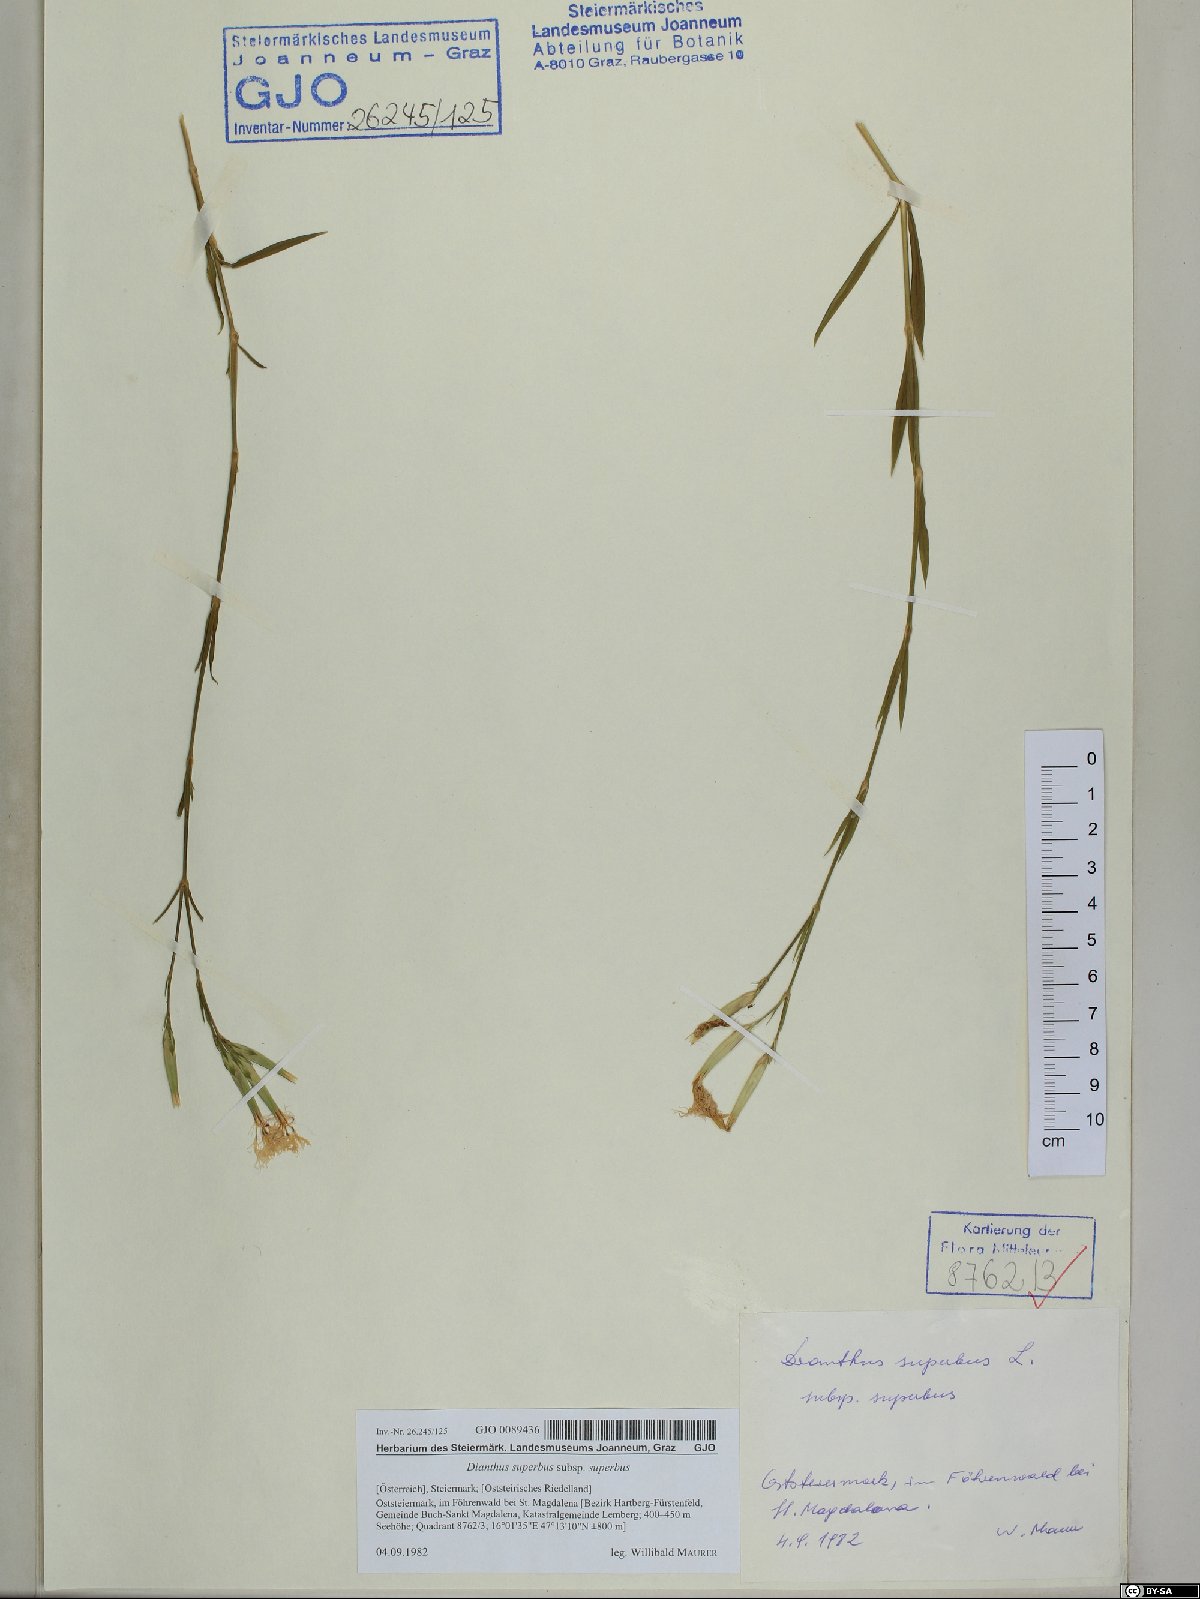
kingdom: Plantae
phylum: Tracheophyta
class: Magnoliopsida
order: Caryophyllales
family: Caryophyllaceae
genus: Dianthus
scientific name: Dianthus superbus
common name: Fringed pink
